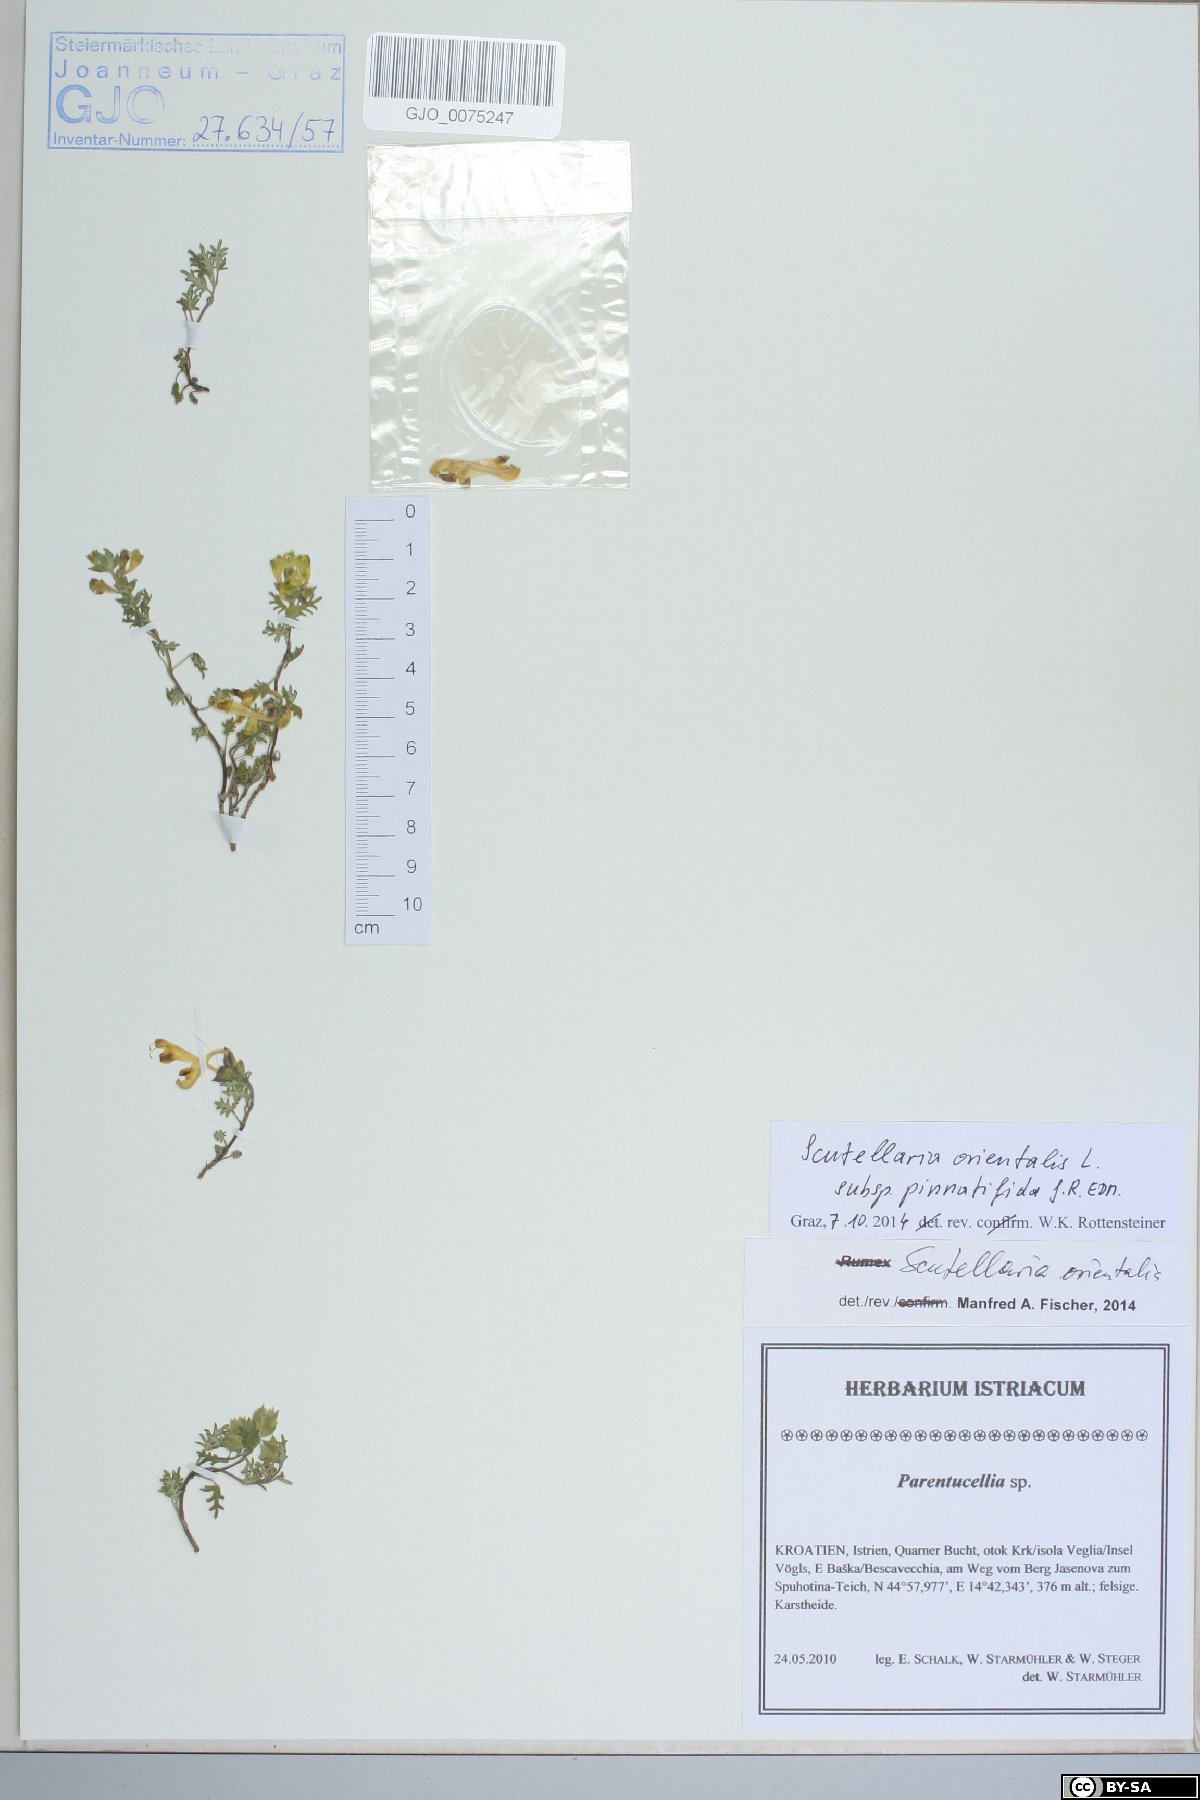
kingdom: Plantae
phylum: Tracheophyta
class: Magnoliopsida
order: Lamiales
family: Lamiaceae
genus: Scutellaria
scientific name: Scutellaria orientalis
